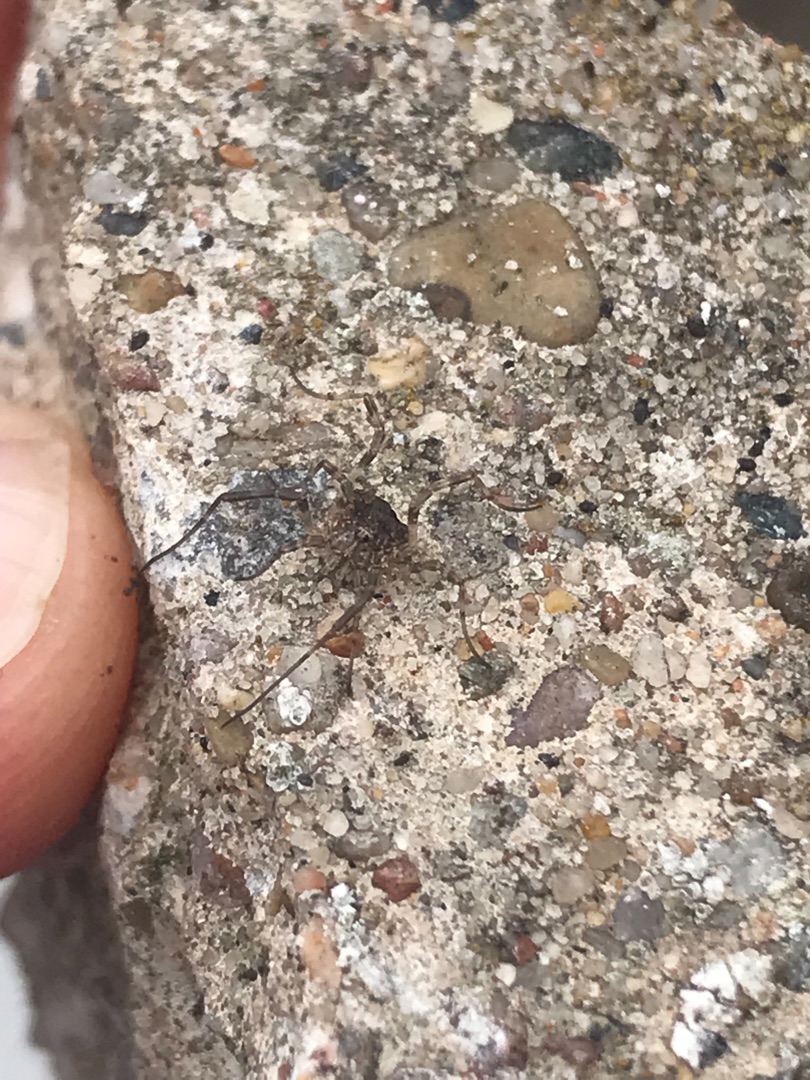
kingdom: Animalia
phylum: Arthropoda
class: Arachnida
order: Opiliones
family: Phalangiidae
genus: Odiellus
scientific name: Odiellus spinosus
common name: Kæmpemejer
